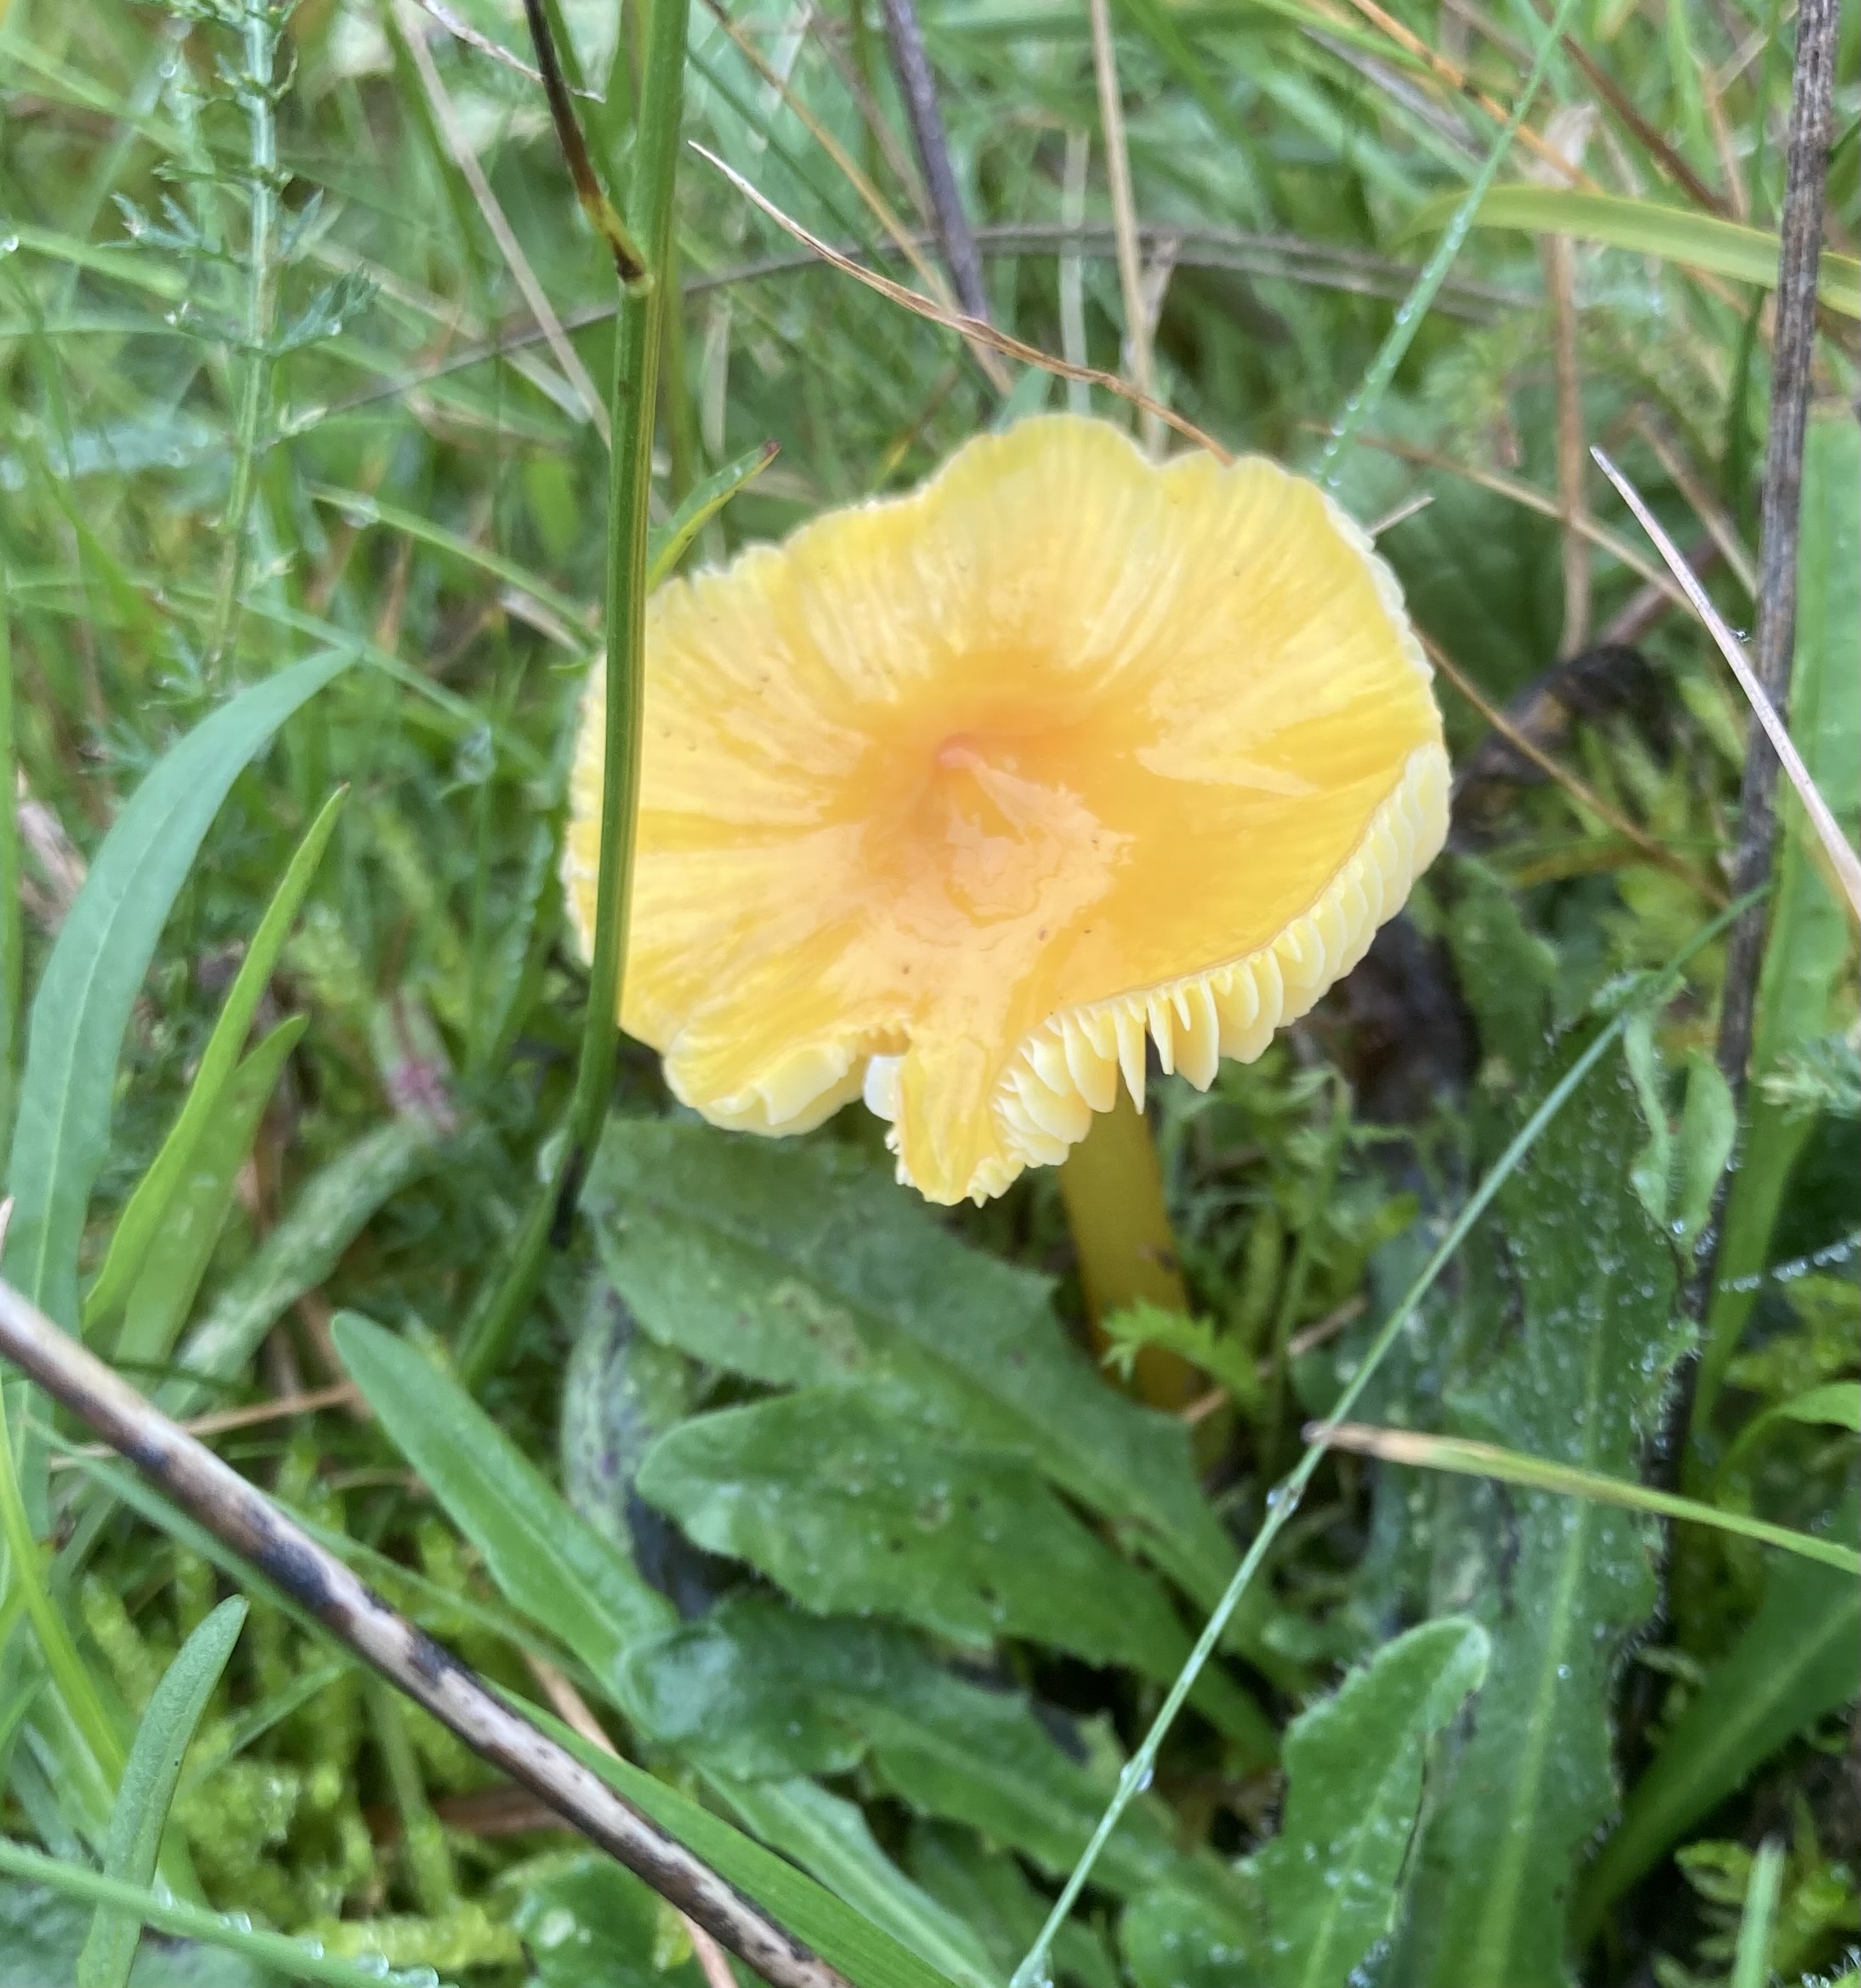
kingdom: Fungi
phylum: Basidiomycota
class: Agaricomycetes
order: Agaricales
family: Hygrophoraceae
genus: Hygrocybe
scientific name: Hygrocybe
